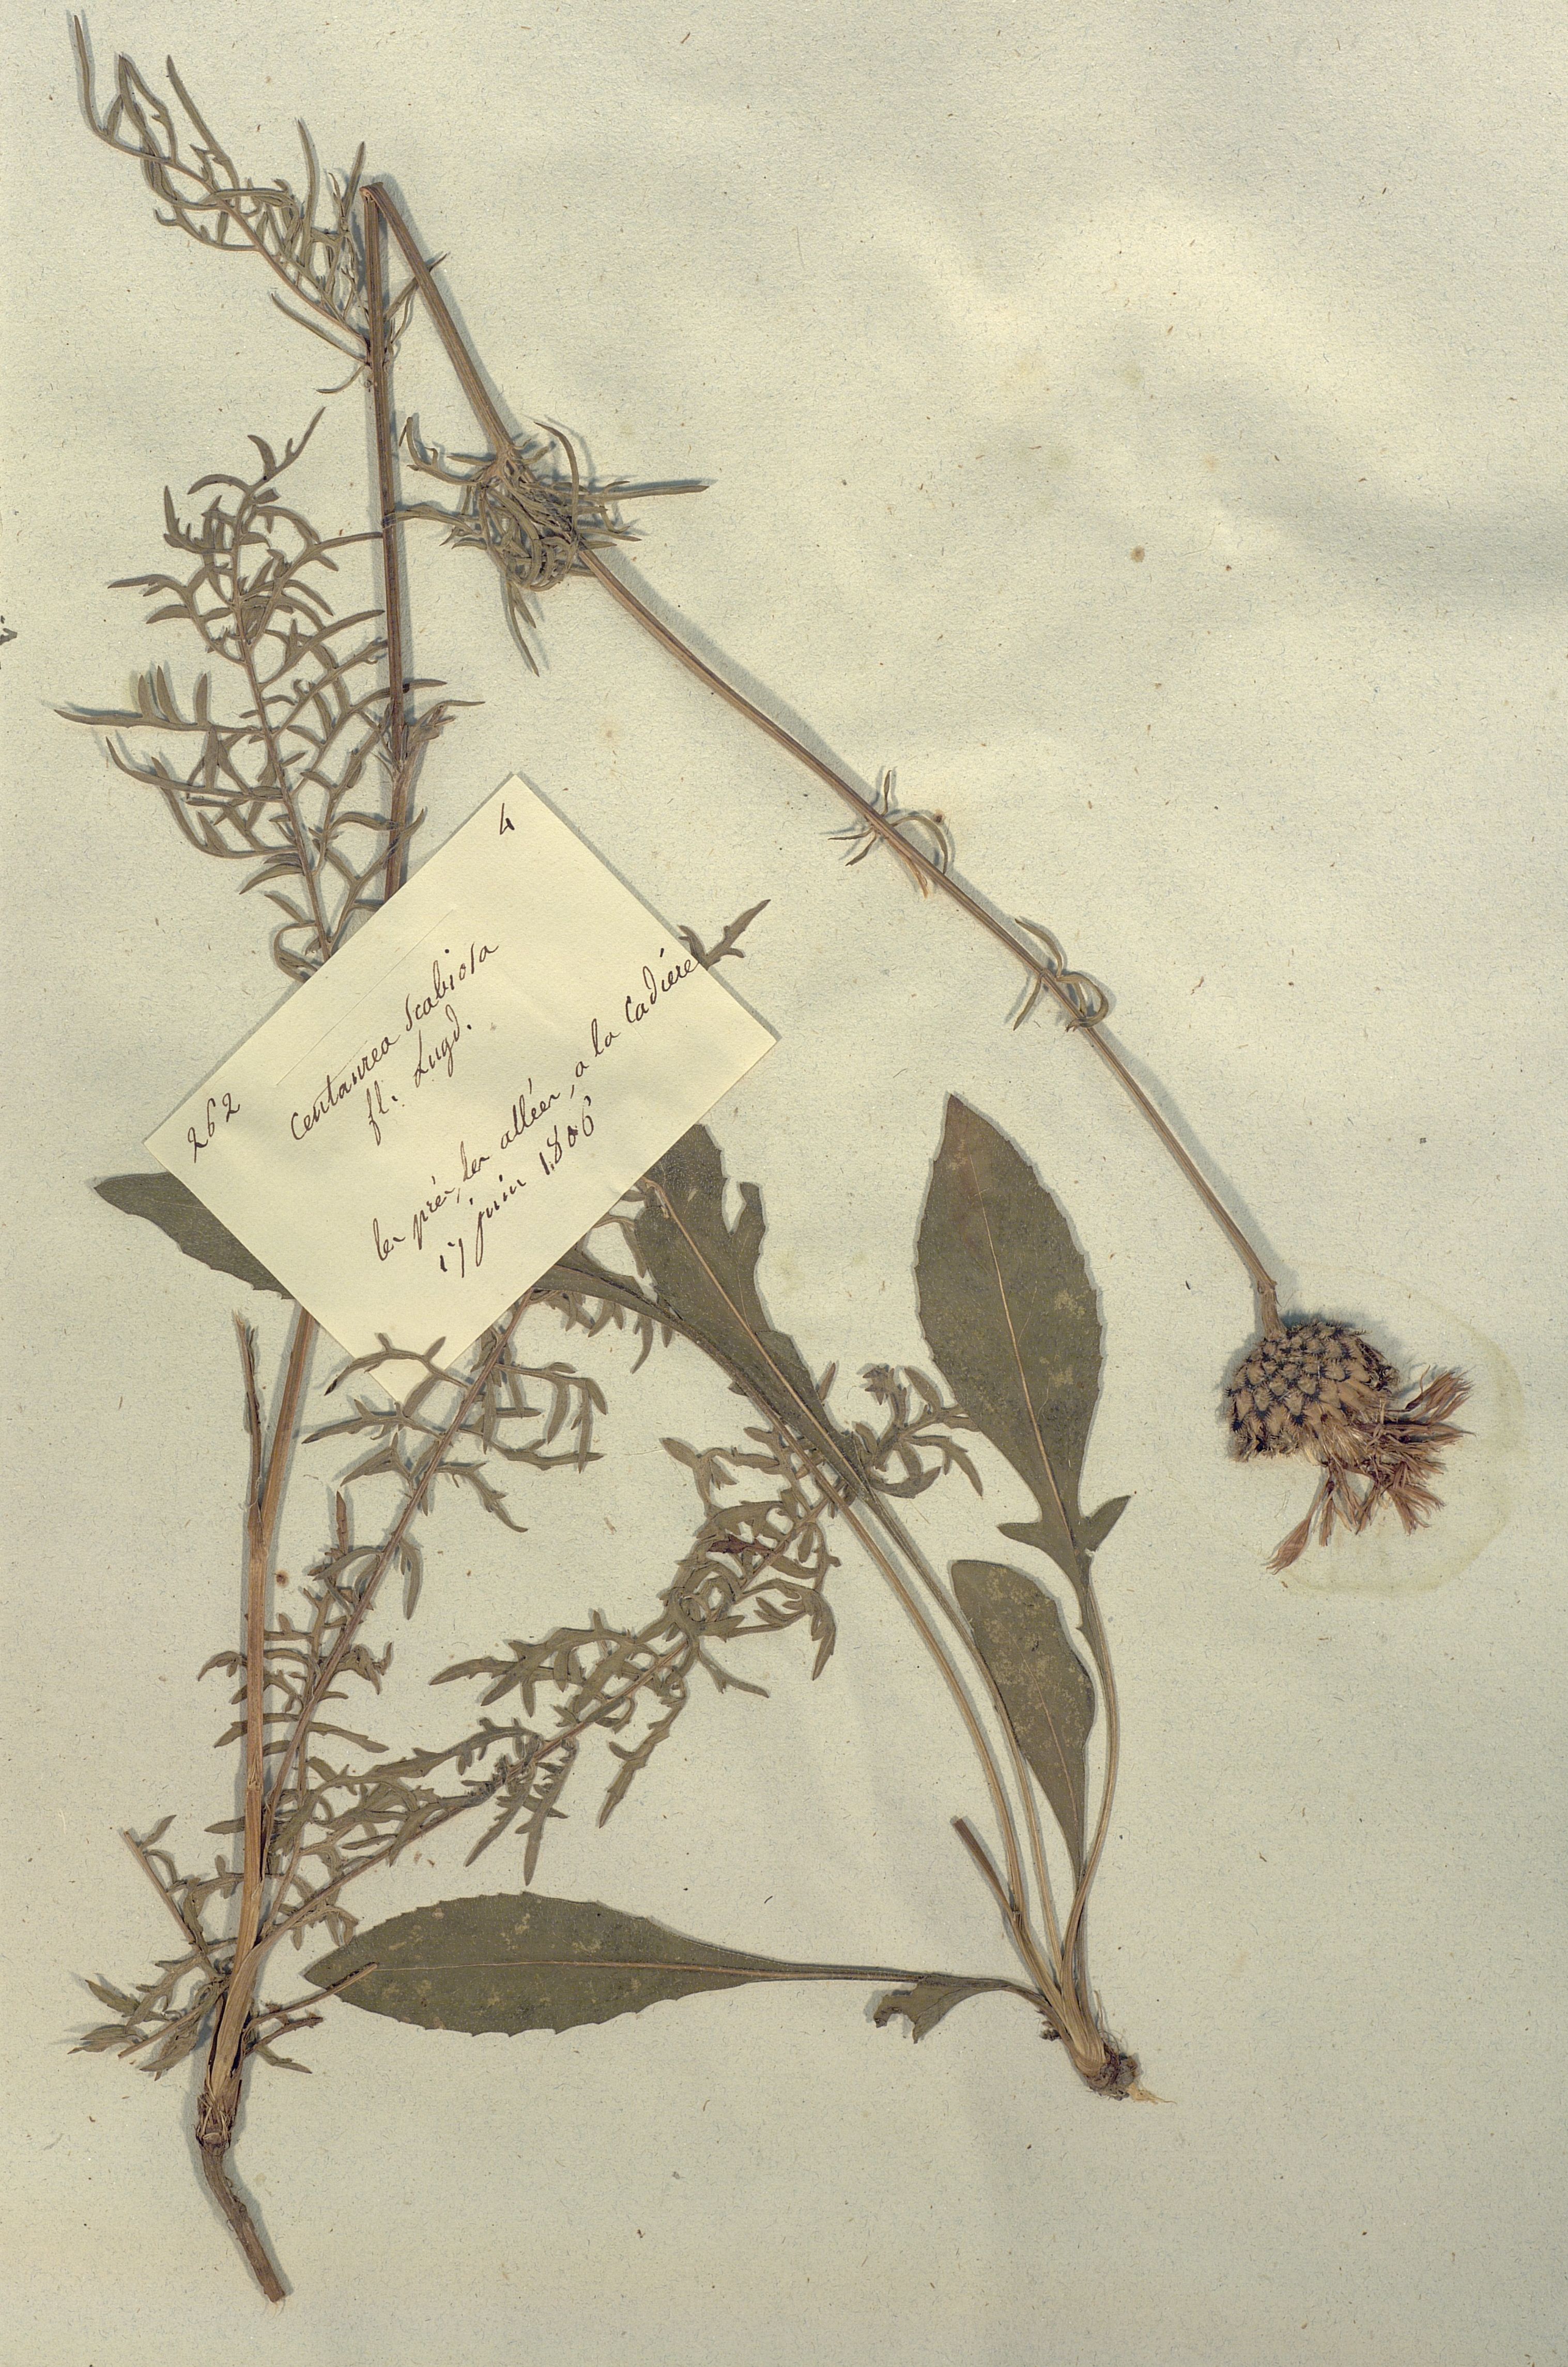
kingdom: Plantae
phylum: Tracheophyta
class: Magnoliopsida
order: Asterales
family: Asteraceae
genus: Centaurea
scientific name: Centaurea scabiosa
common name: Greater knapweed
